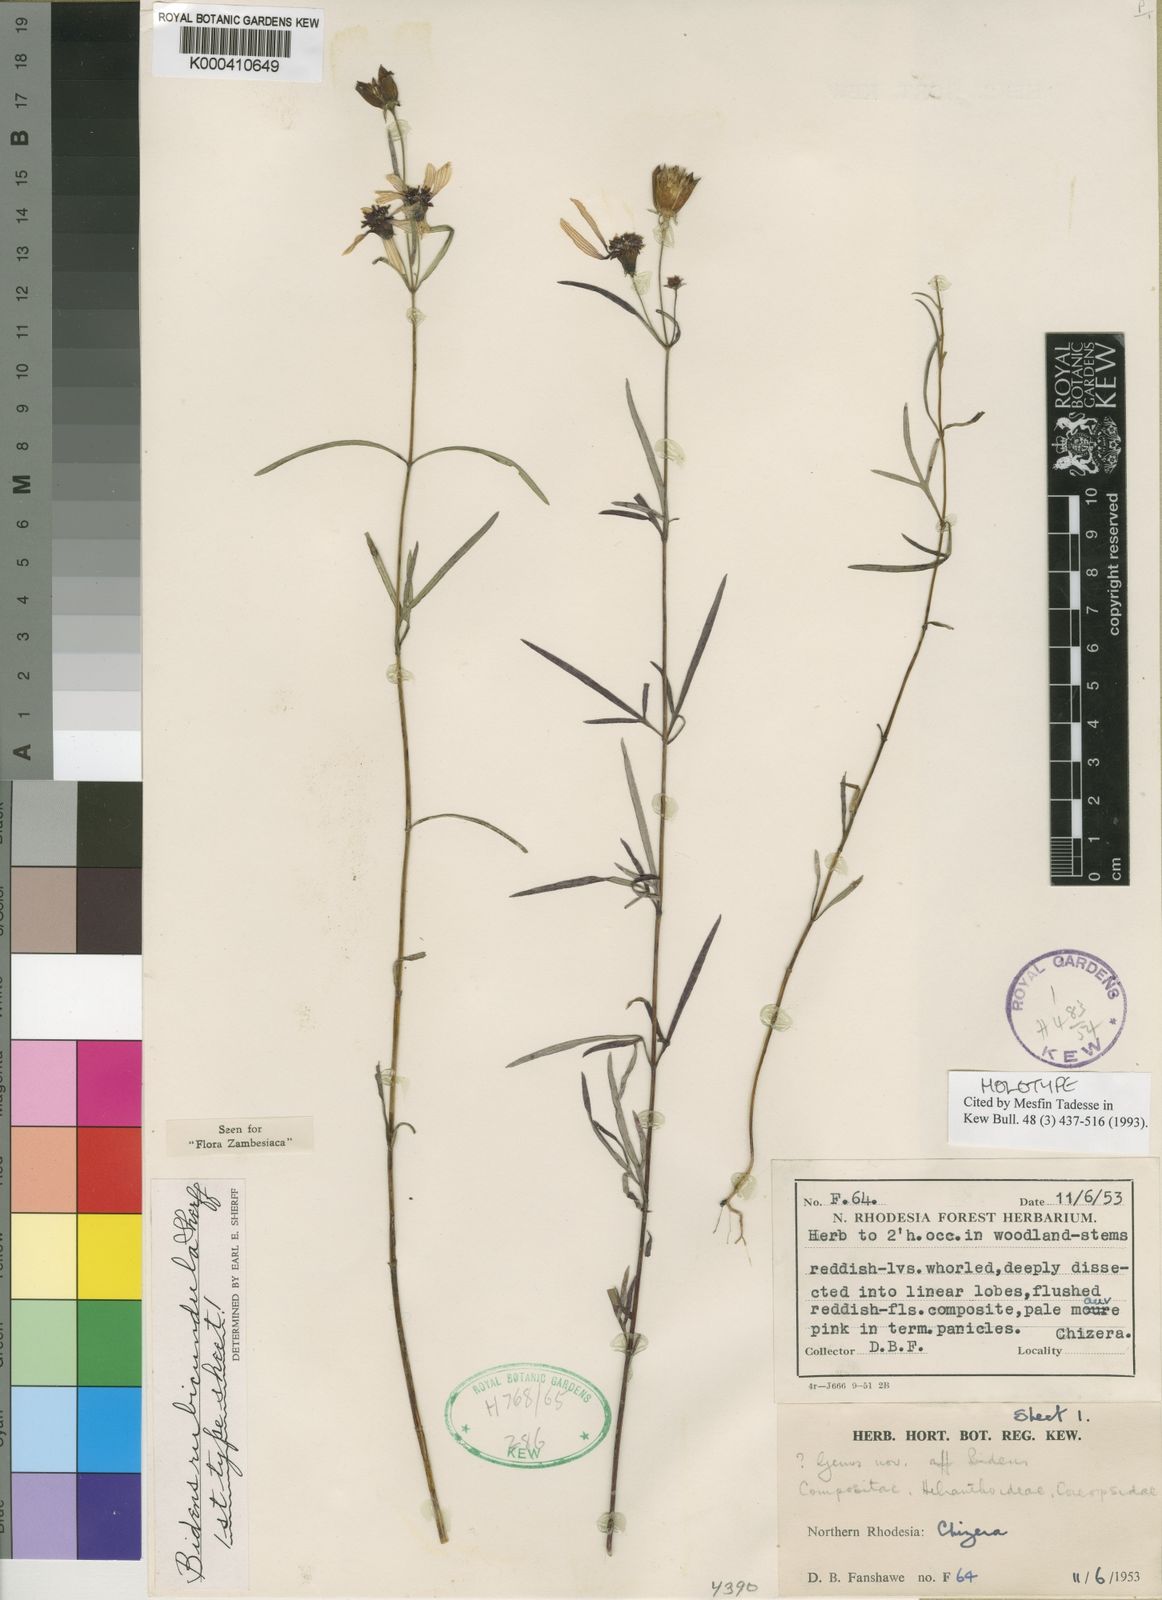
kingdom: Plantae
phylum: Tracheophyta
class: Magnoliopsida
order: Asterales
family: Asteraceae
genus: Bidens
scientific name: Bidens rubicundula
